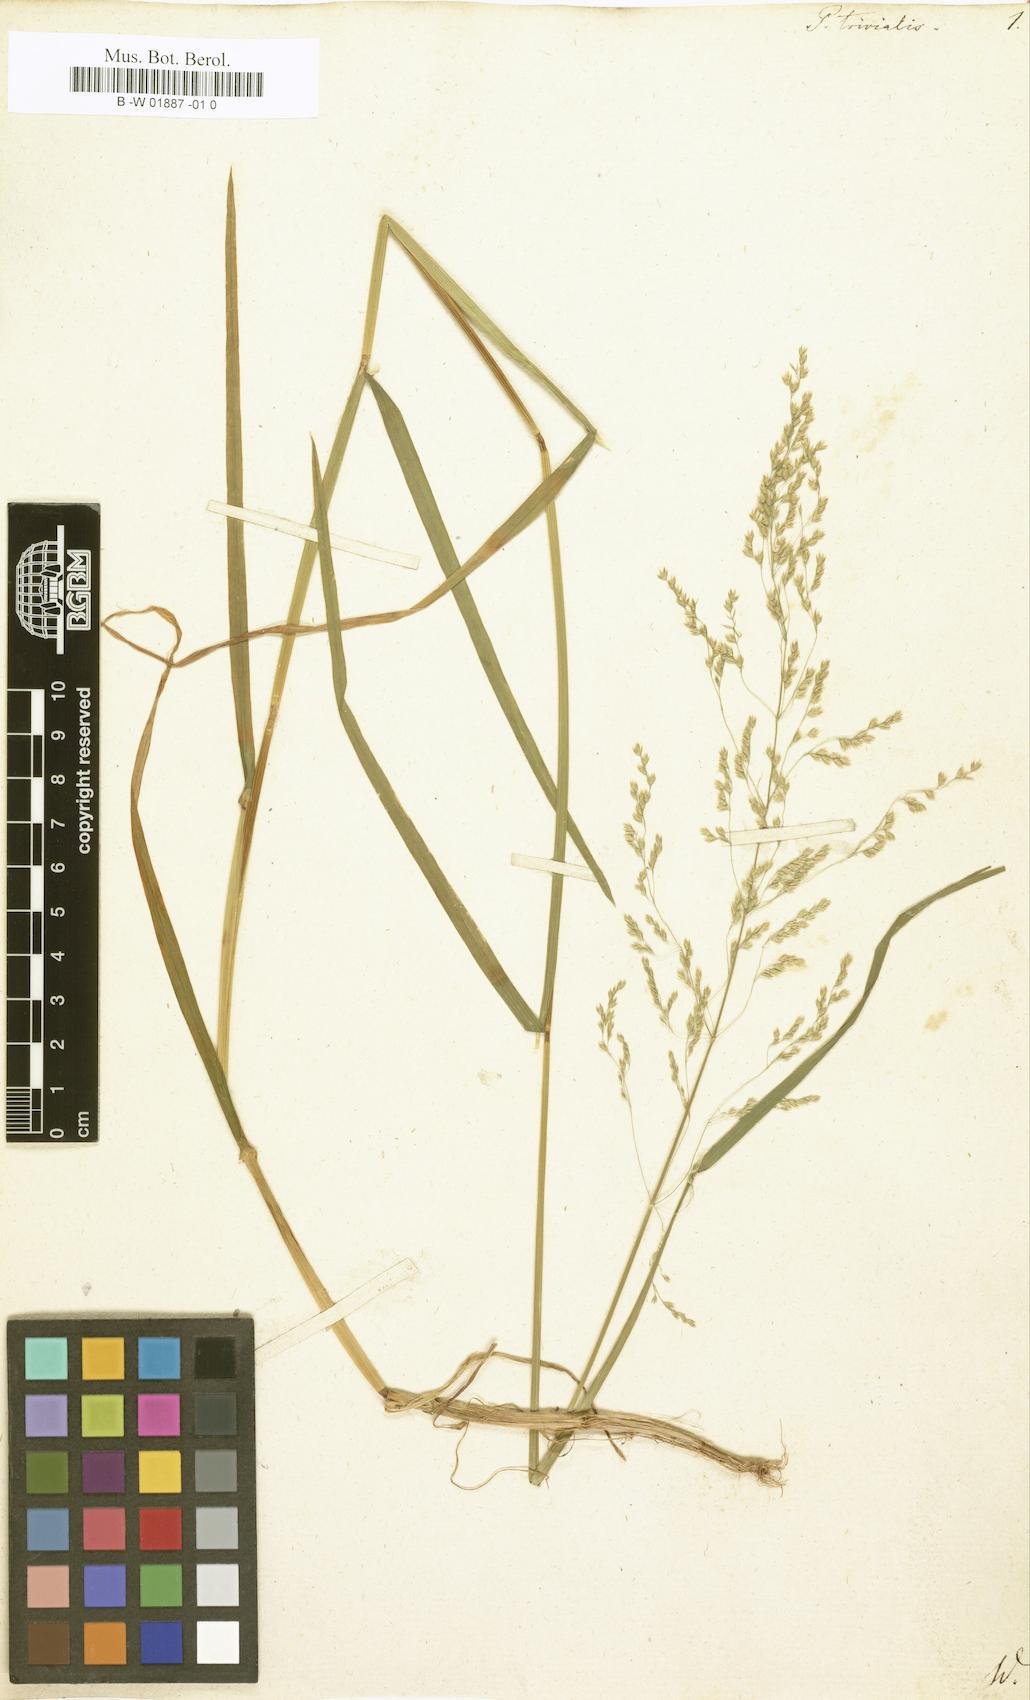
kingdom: Plantae
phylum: Tracheophyta
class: Liliopsida
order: Poales
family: Poaceae
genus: Poa
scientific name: Poa trivialis
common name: Rough bluegrass
